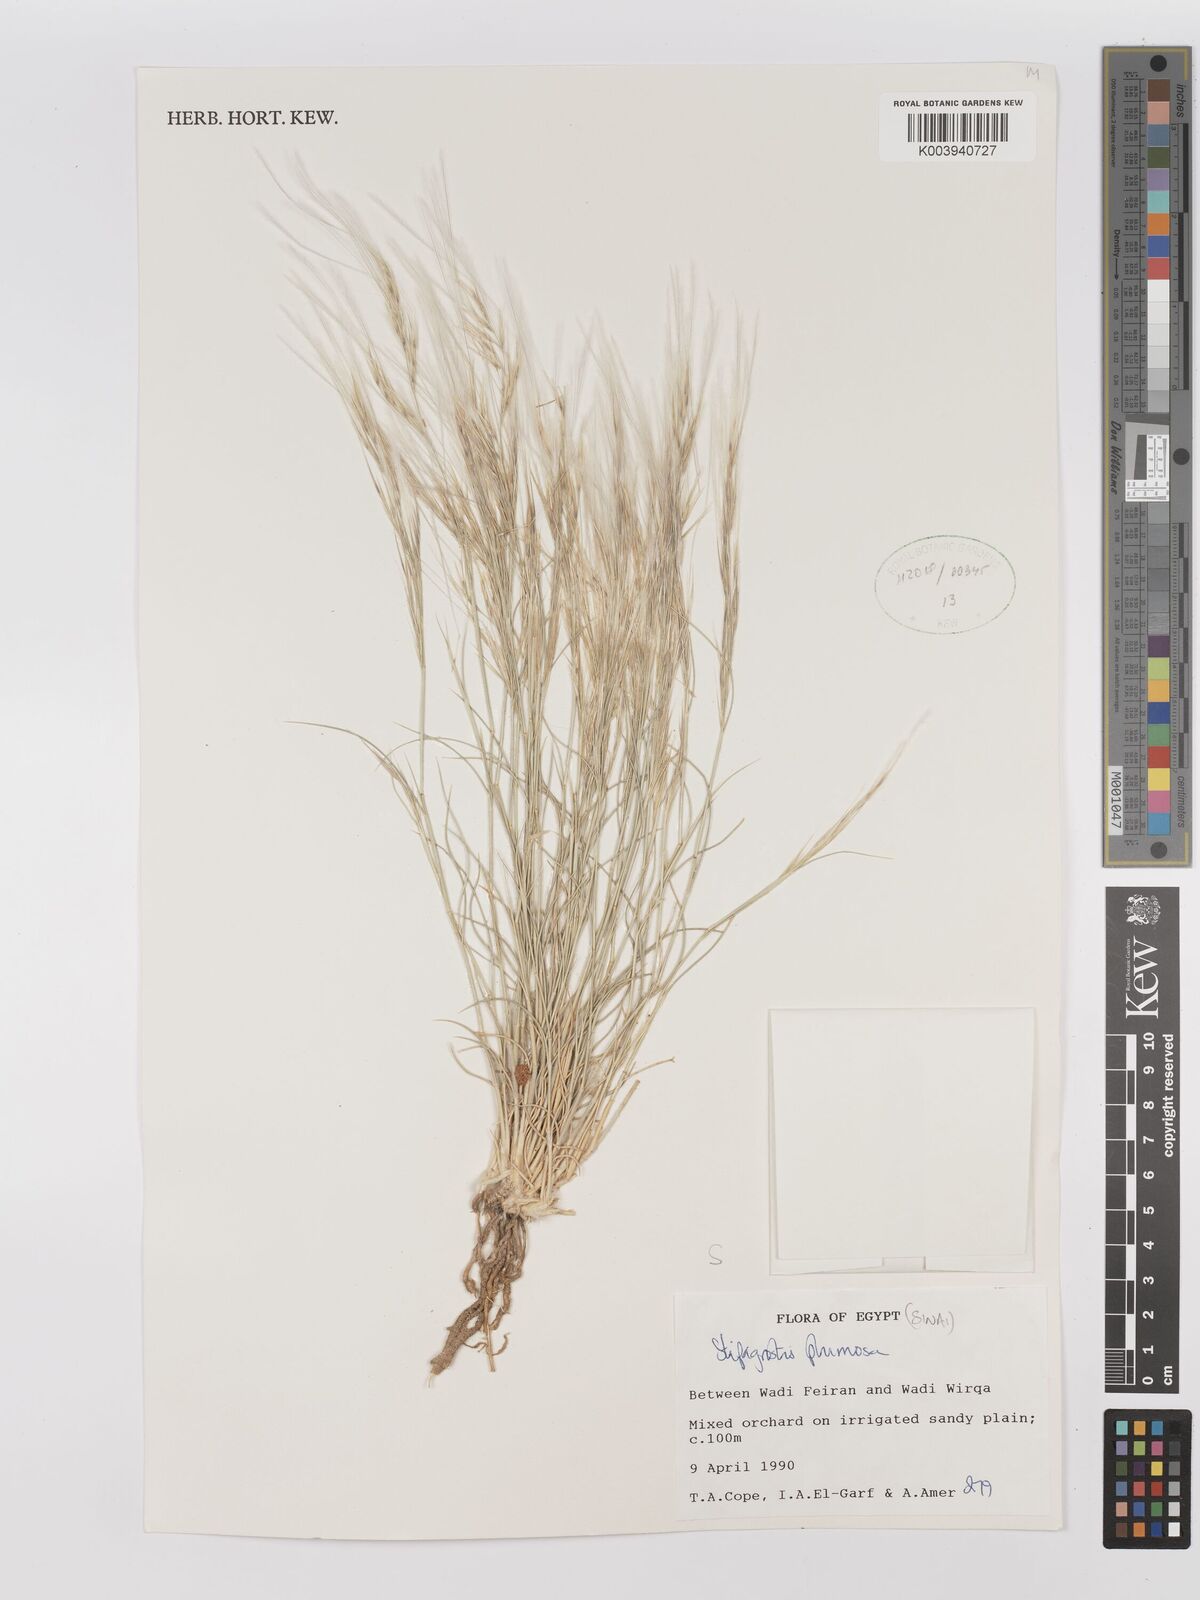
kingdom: Plantae
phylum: Tracheophyta
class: Liliopsida
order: Poales
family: Poaceae
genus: Stipagrostis
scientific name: Stipagrostis plumosa
